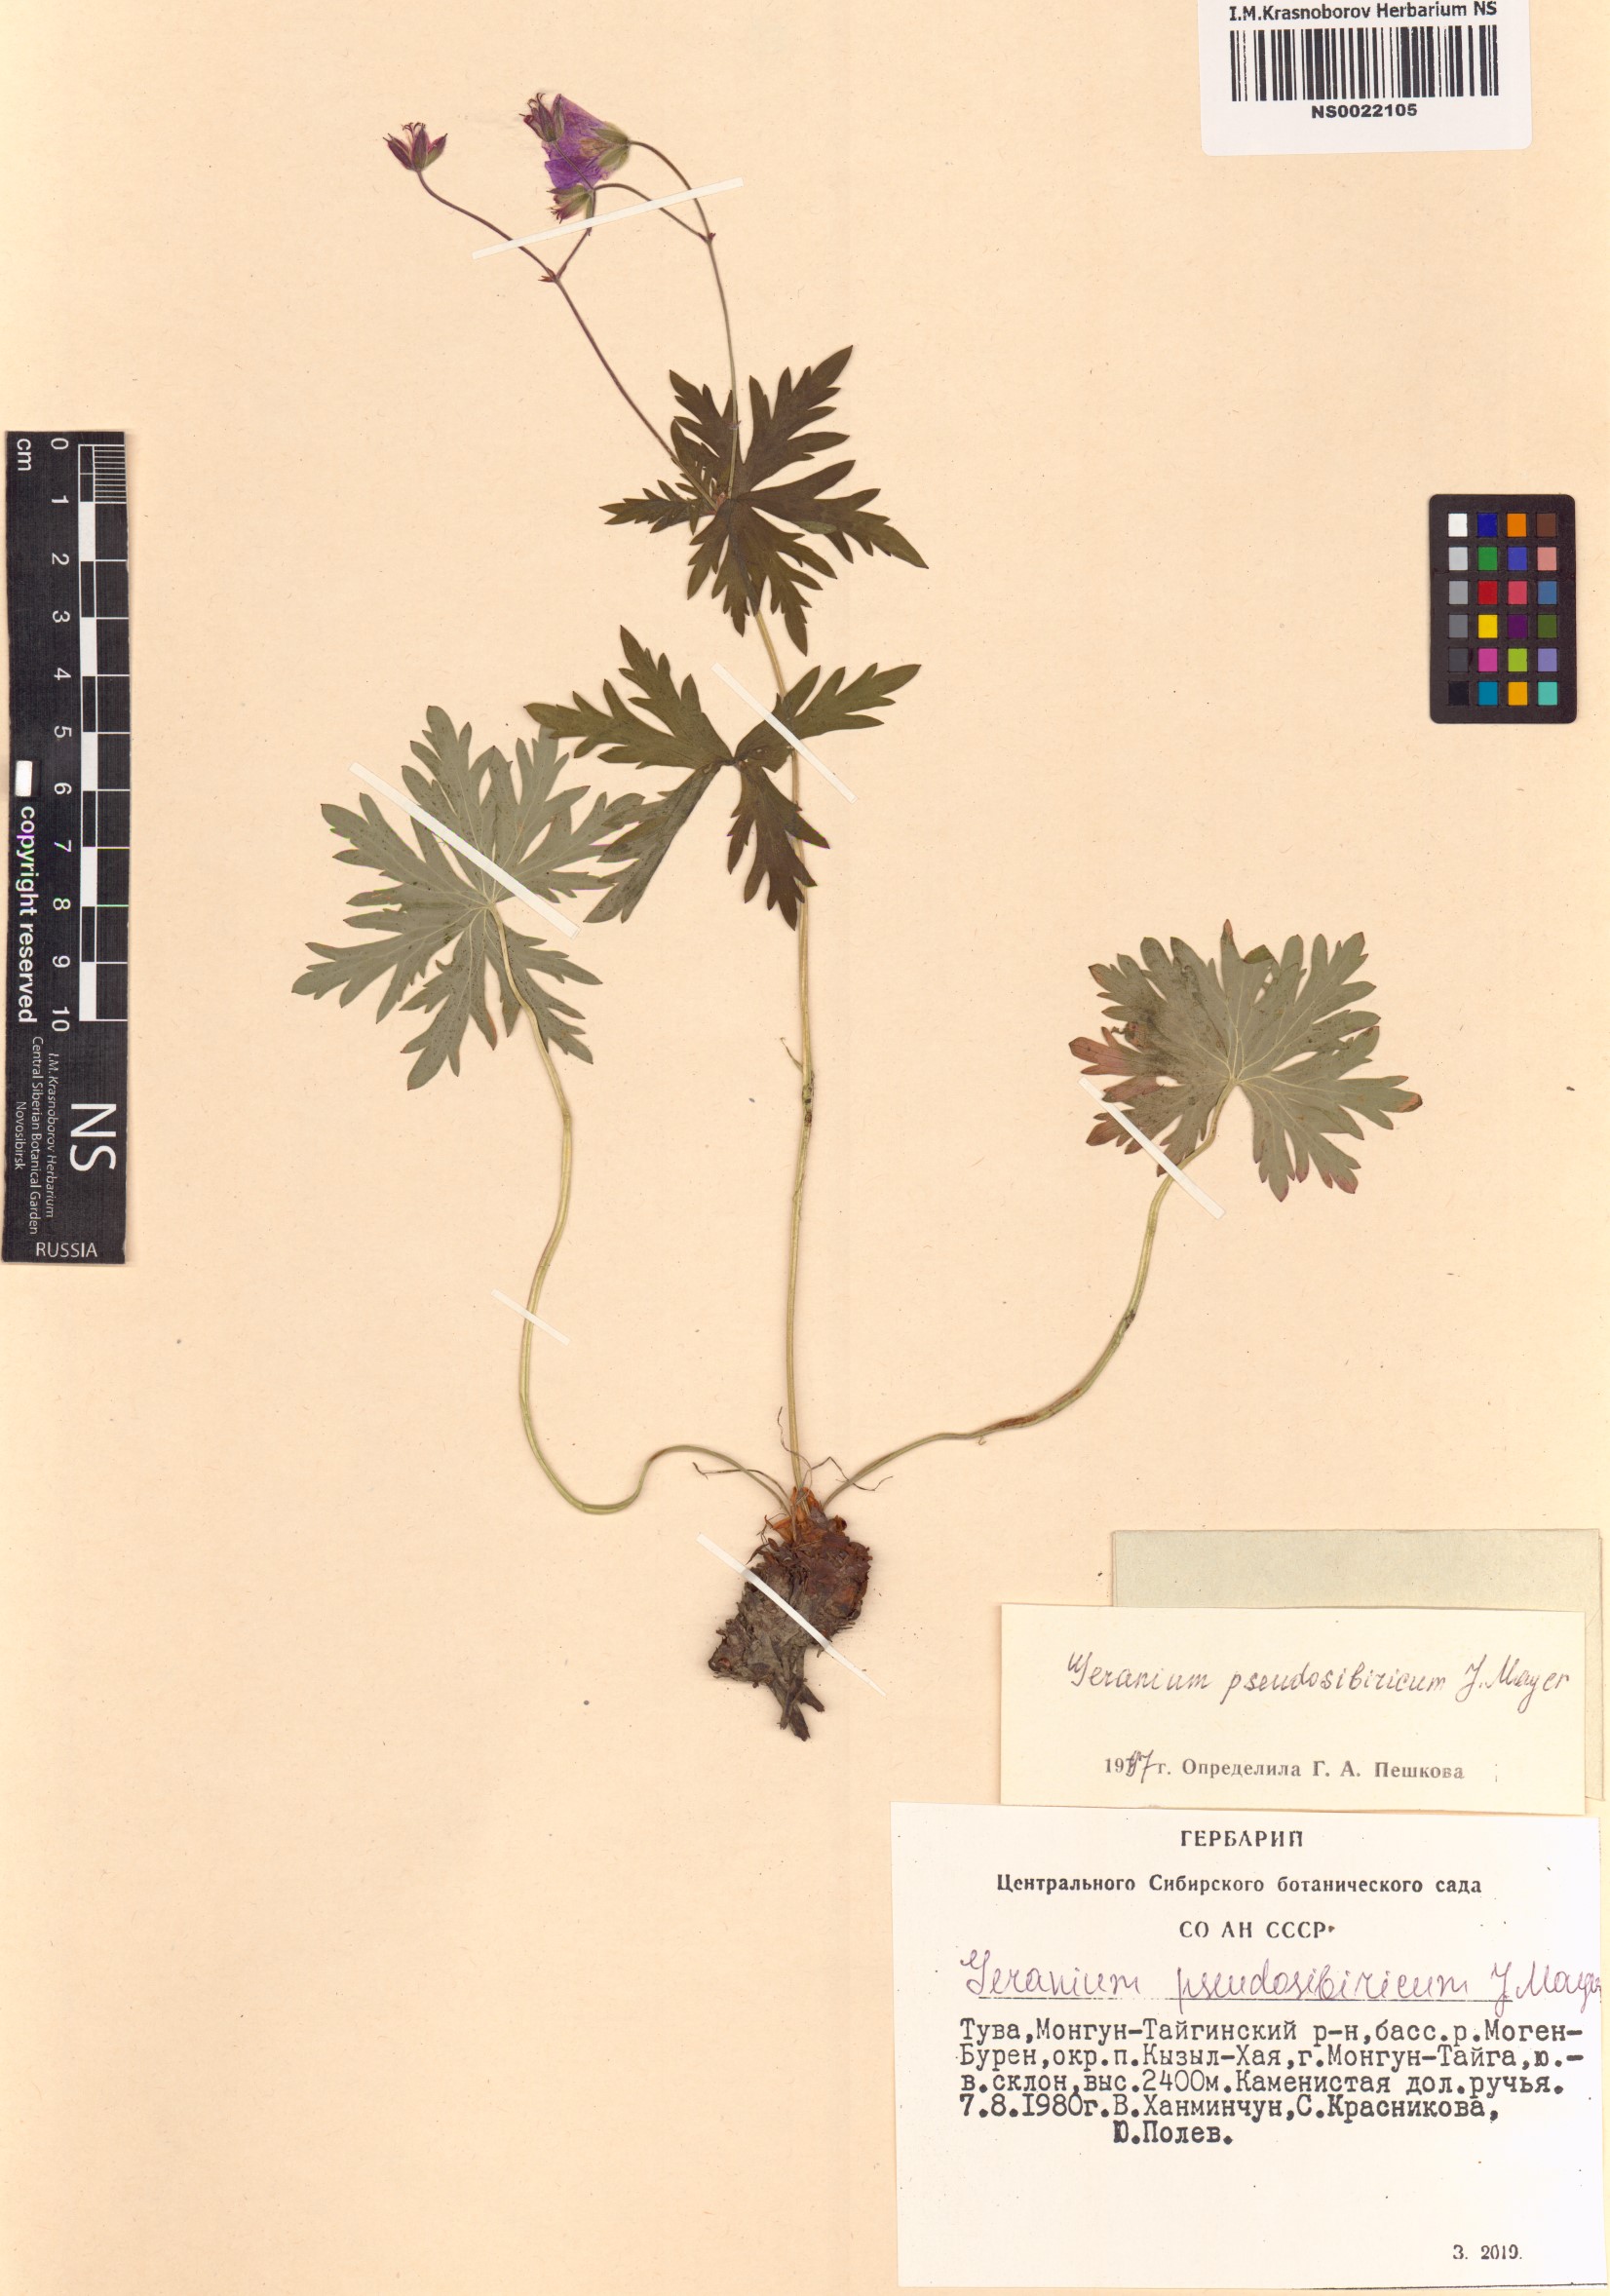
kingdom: Plantae
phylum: Tracheophyta
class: Magnoliopsida
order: Geraniales
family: Geraniaceae
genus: Geranium
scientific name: Geranium pseudosibiricum
